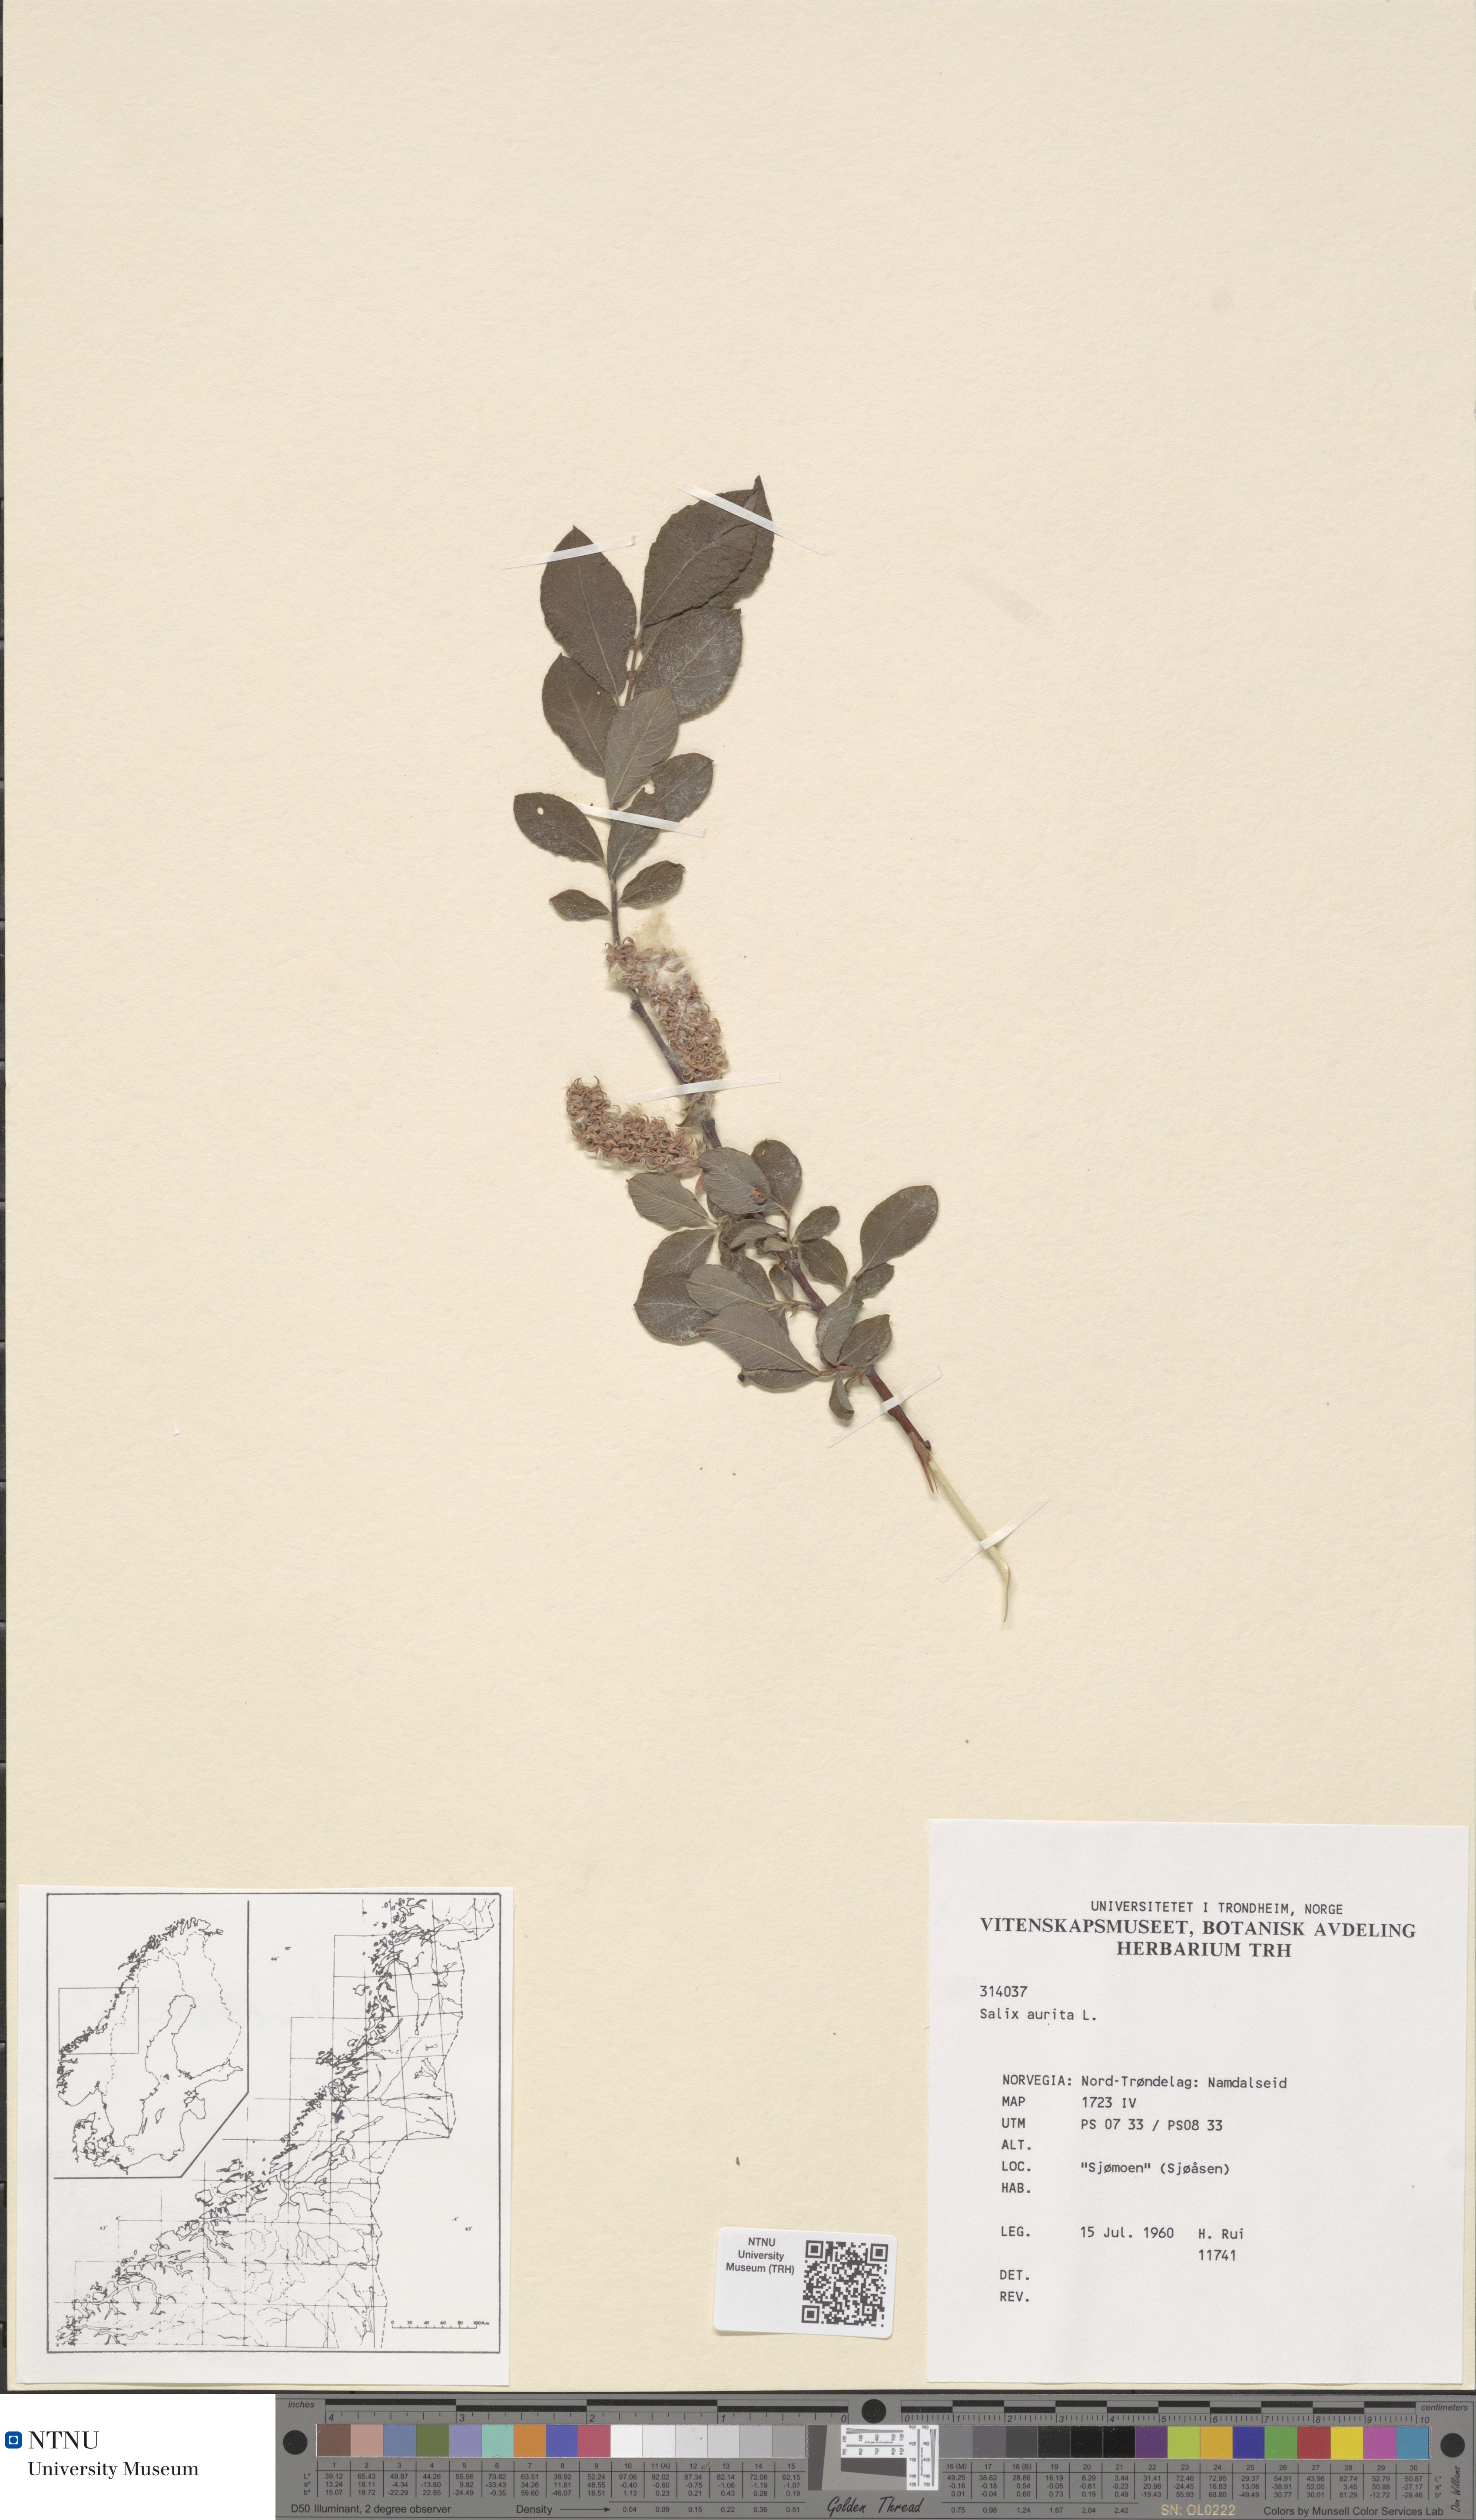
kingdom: Plantae
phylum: Tracheophyta
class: Magnoliopsida
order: Malpighiales
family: Salicaceae
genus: Salix
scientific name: Salix aurita
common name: Eared willow
